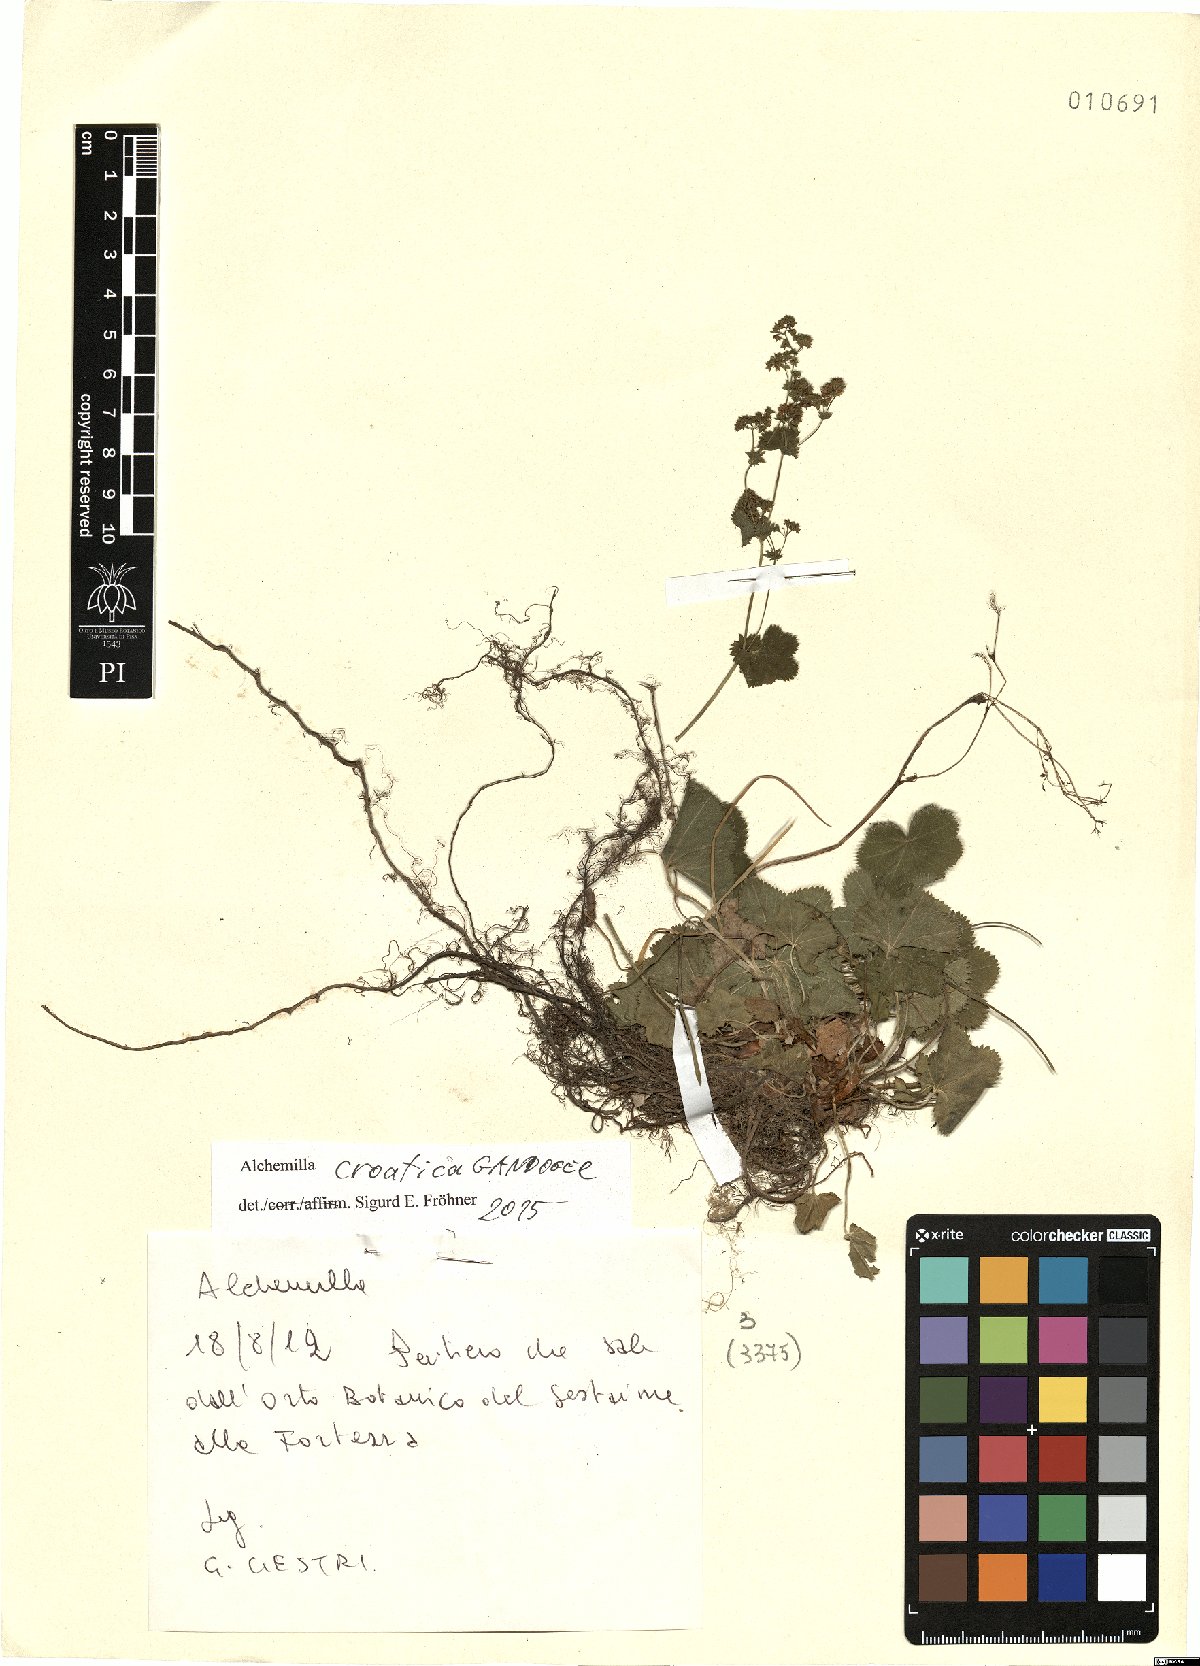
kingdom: Plantae
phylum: Tracheophyta
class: Magnoliopsida
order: Rosales
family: Rosaceae
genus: Alchemilla
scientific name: Alchemilla croatica
